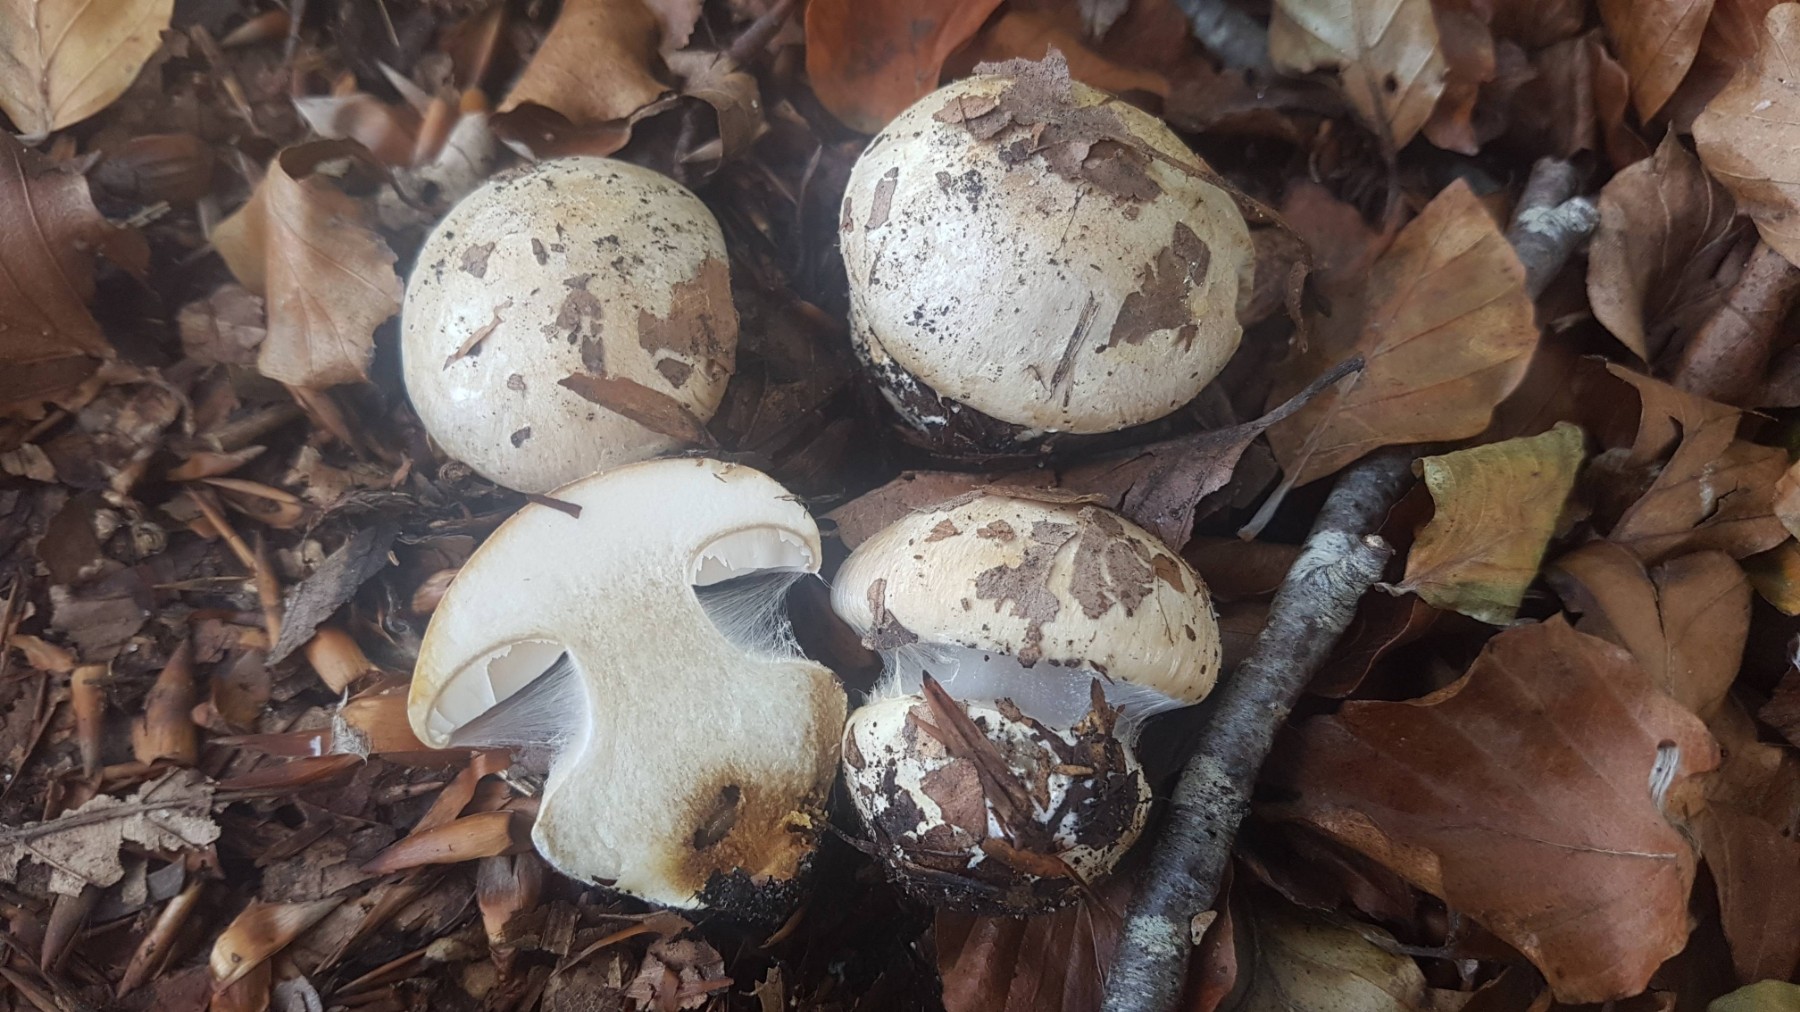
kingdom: Fungi
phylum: Basidiomycota
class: Agaricomycetes
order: Agaricales
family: Cortinariaceae
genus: Cortinarius
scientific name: Cortinarius foetens
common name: stribet slørhat
